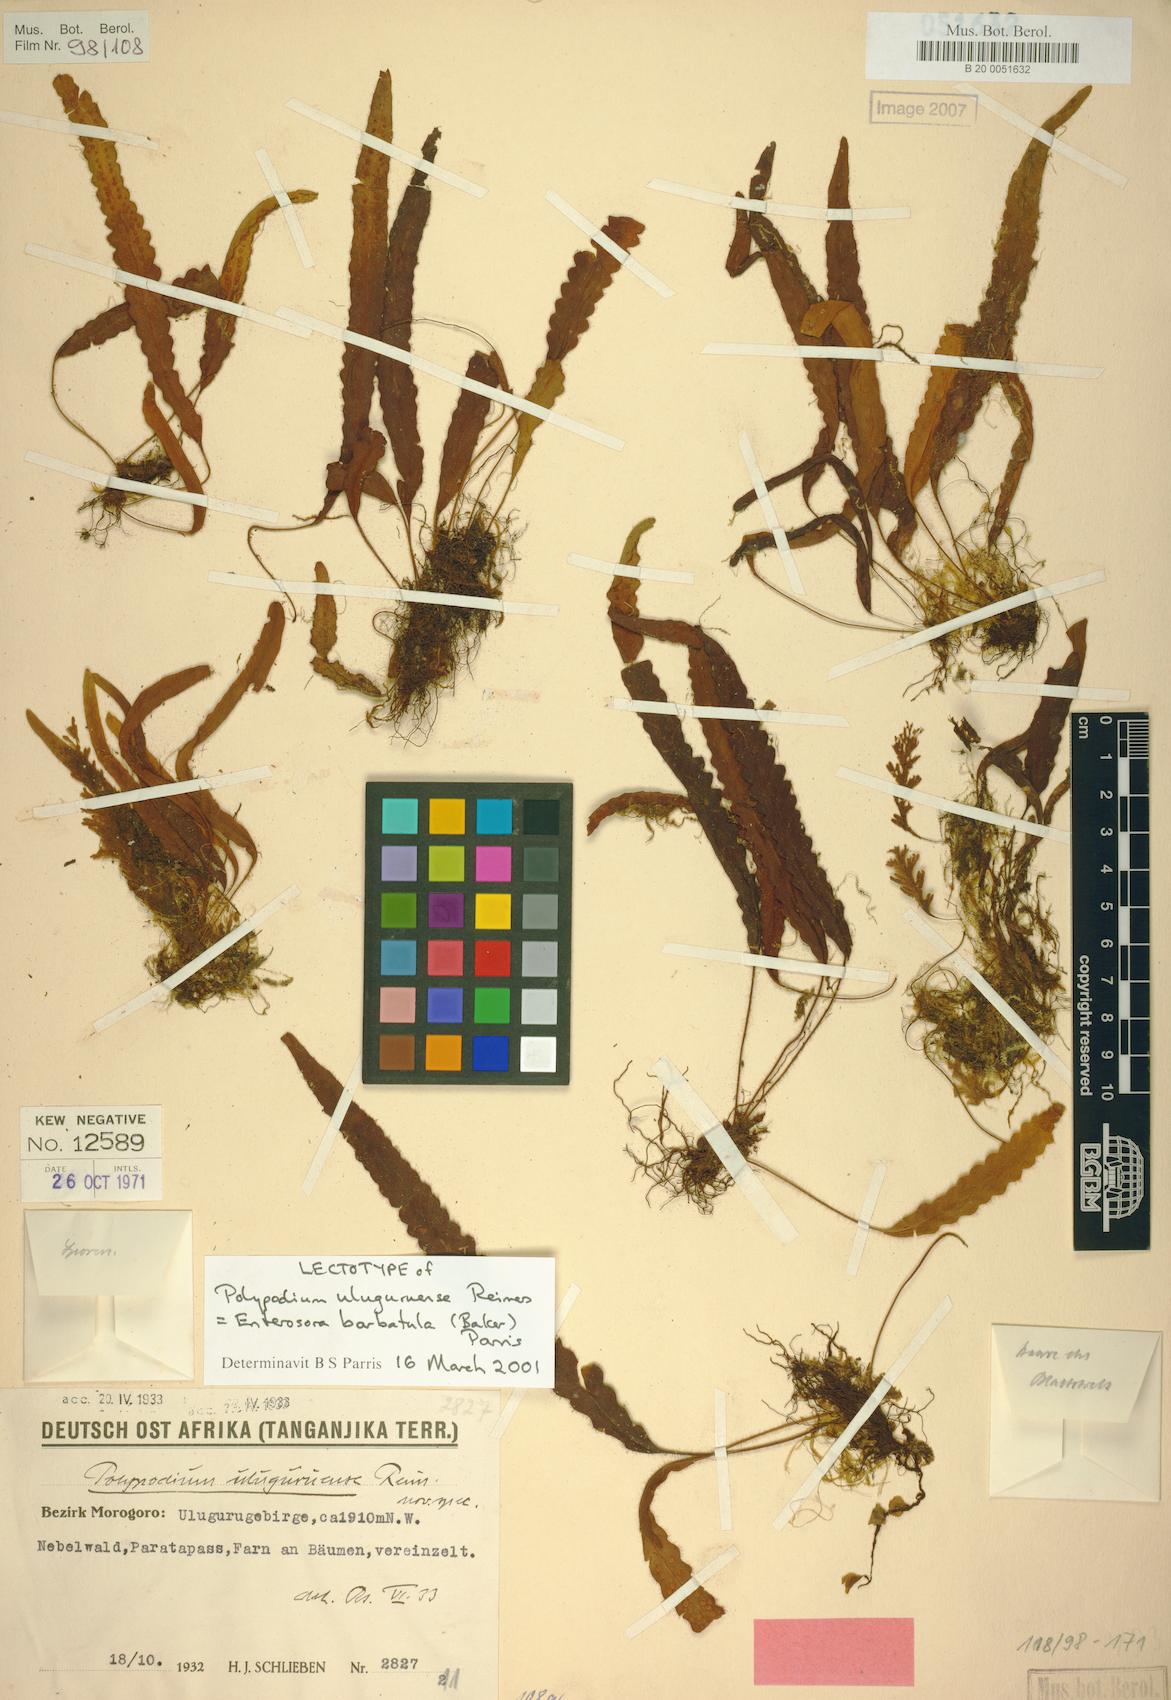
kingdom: Plantae
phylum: Tracheophyta
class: Polypodiopsida
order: Polypodiales
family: Polypodiaceae
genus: Enterosora
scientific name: Enterosora barbatula
